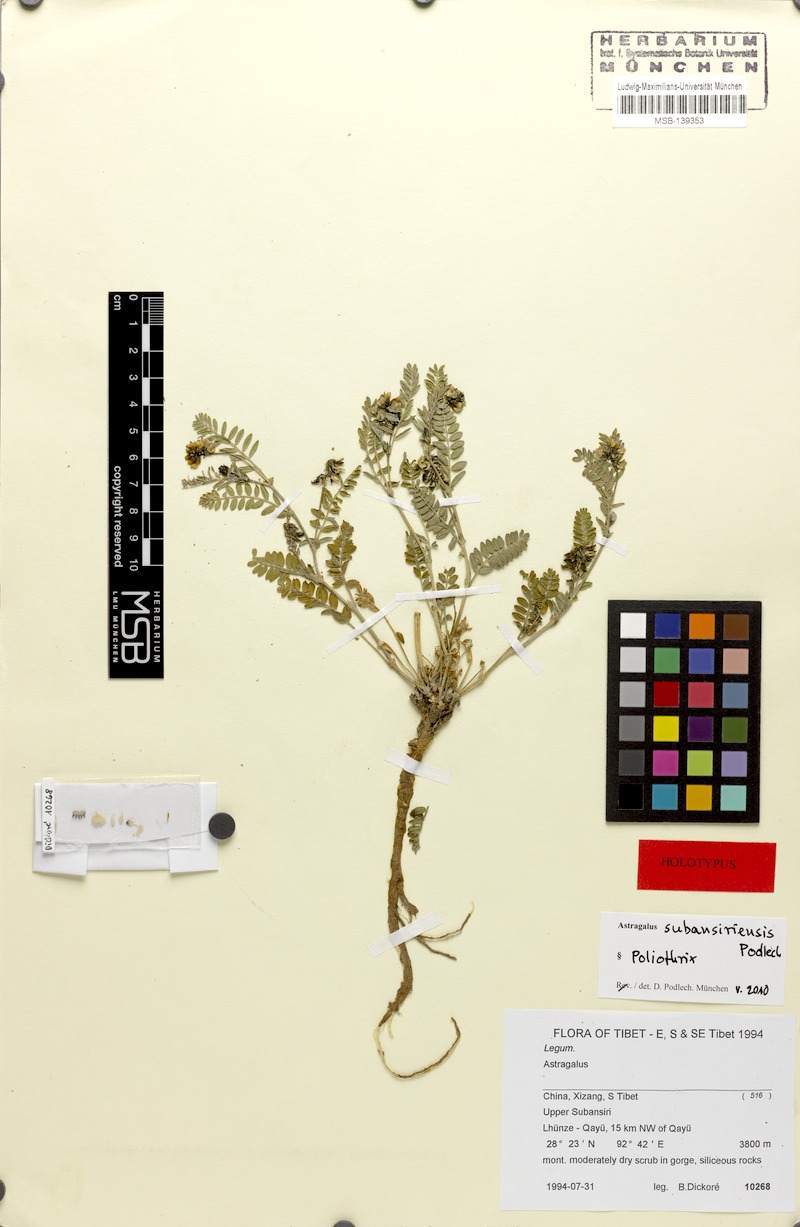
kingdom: Plantae
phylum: Tracheophyta
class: Magnoliopsida
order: Fabales
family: Fabaceae
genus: Astragalus
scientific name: Astragalus subansiriensis
